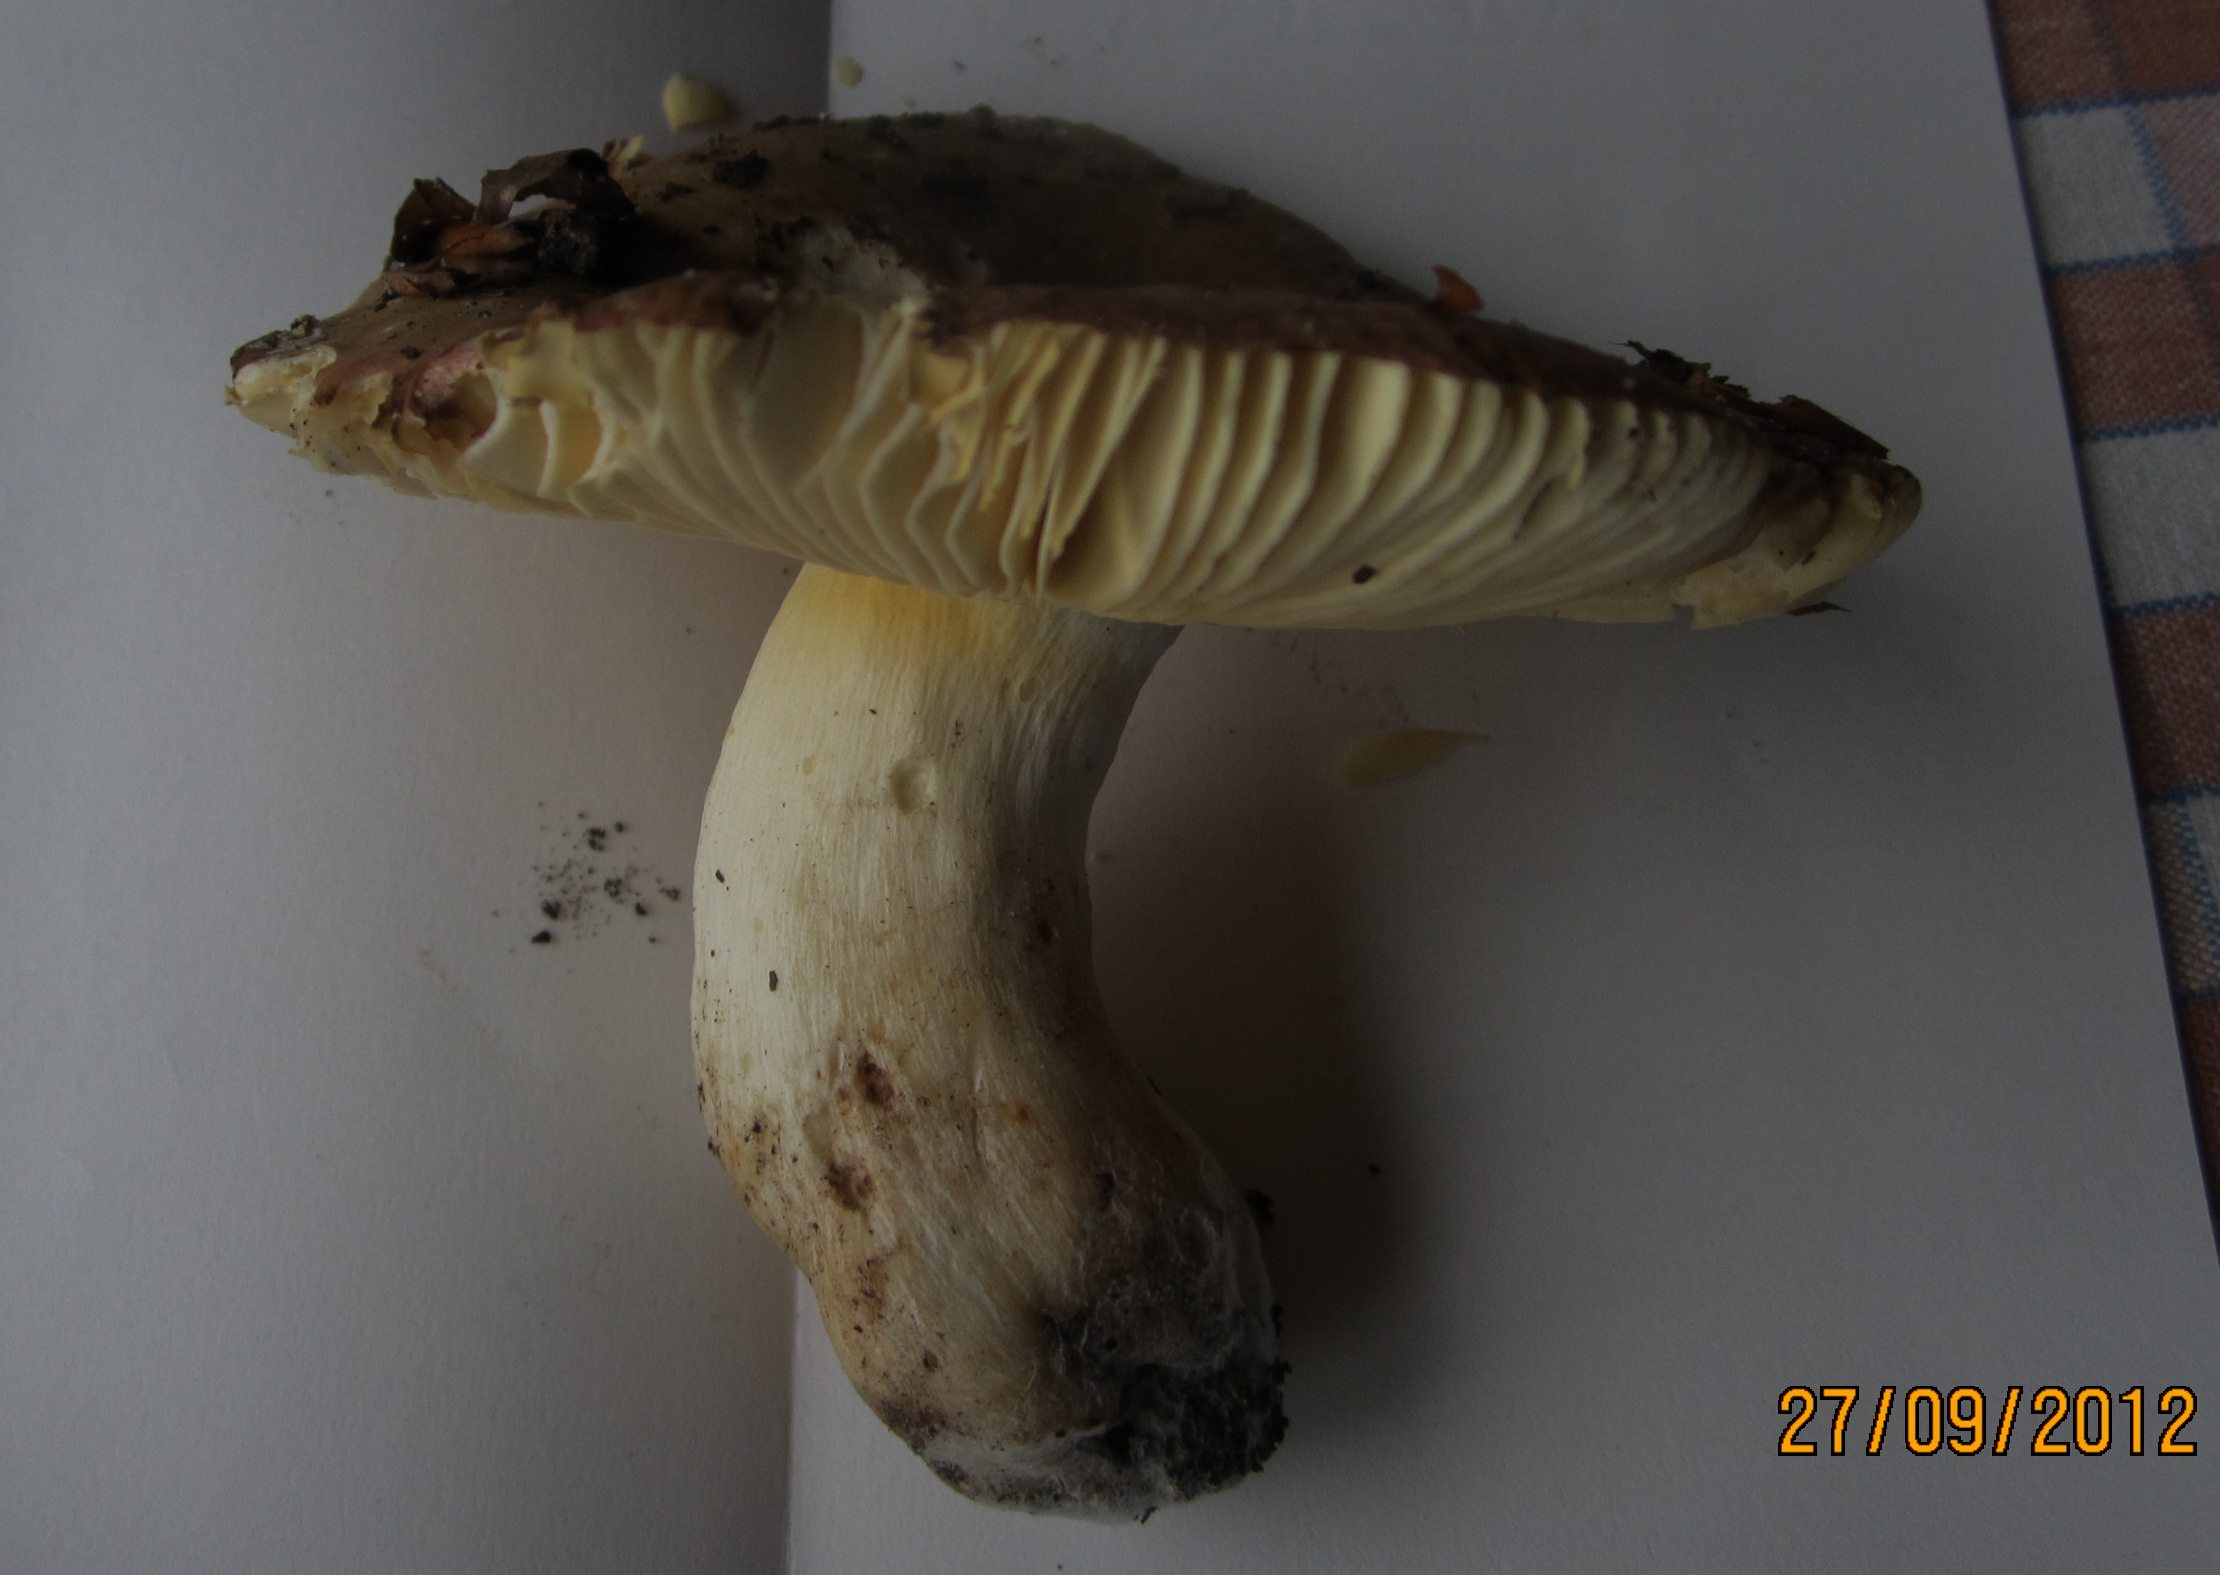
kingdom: Fungi
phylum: Basidiomycota
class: Agaricomycetes
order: Russulales
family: Russulaceae
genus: Russula
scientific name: Russula romellii
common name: romells skørhat
